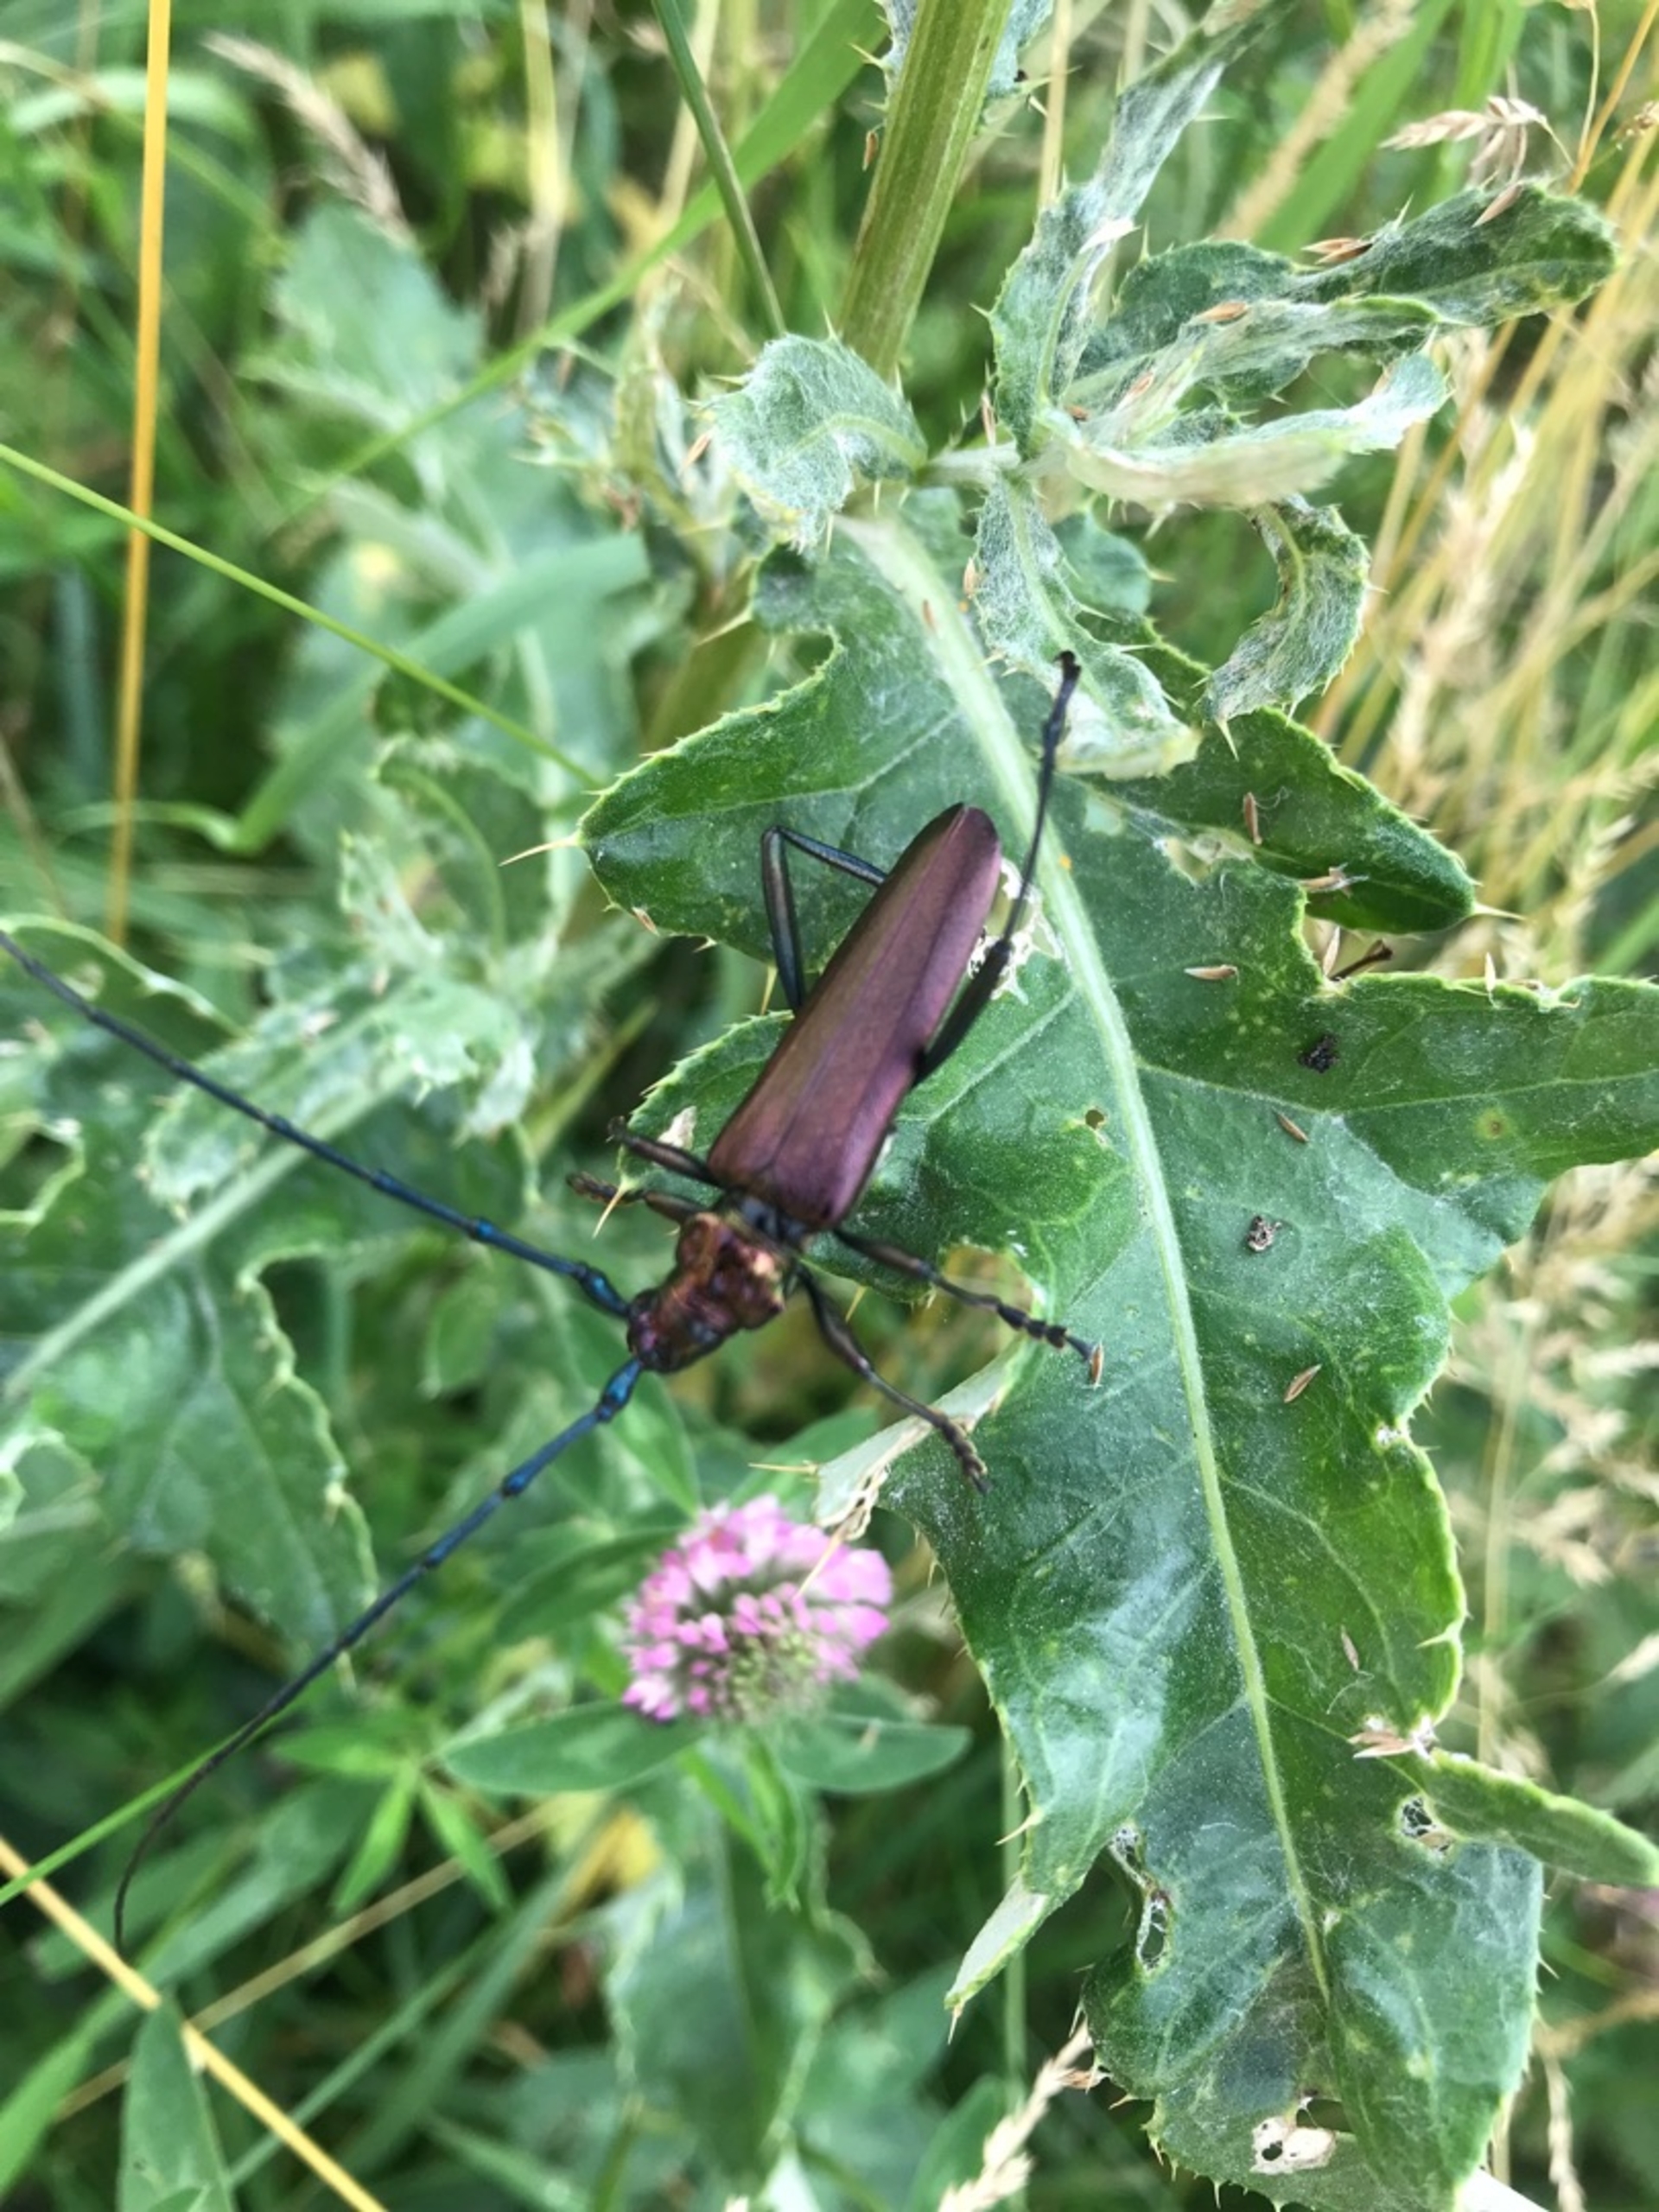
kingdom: Animalia
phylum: Arthropoda
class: Insecta
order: Coleoptera
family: Cerambycidae
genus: Aromia
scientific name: Aromia moschata
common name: Moskusbuk
